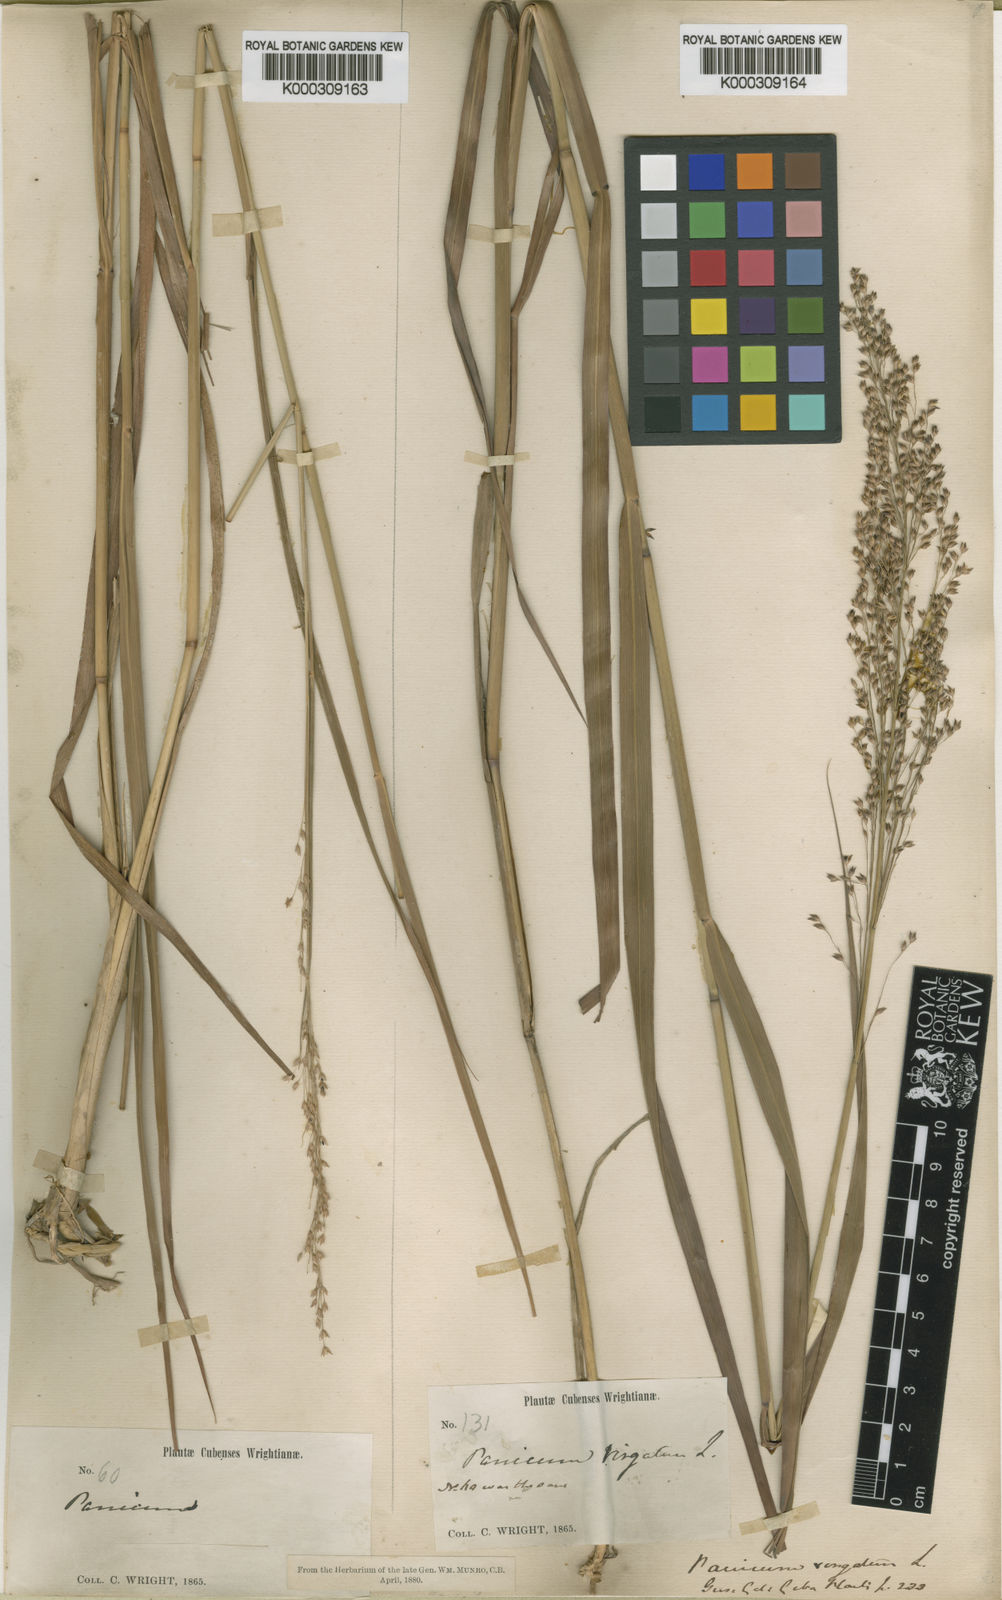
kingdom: Plantae
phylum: Tracheophyta
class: Liliopsida
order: Poales
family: Poaceae
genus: Panicum
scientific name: Panicum virgatum
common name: Switchgrass
